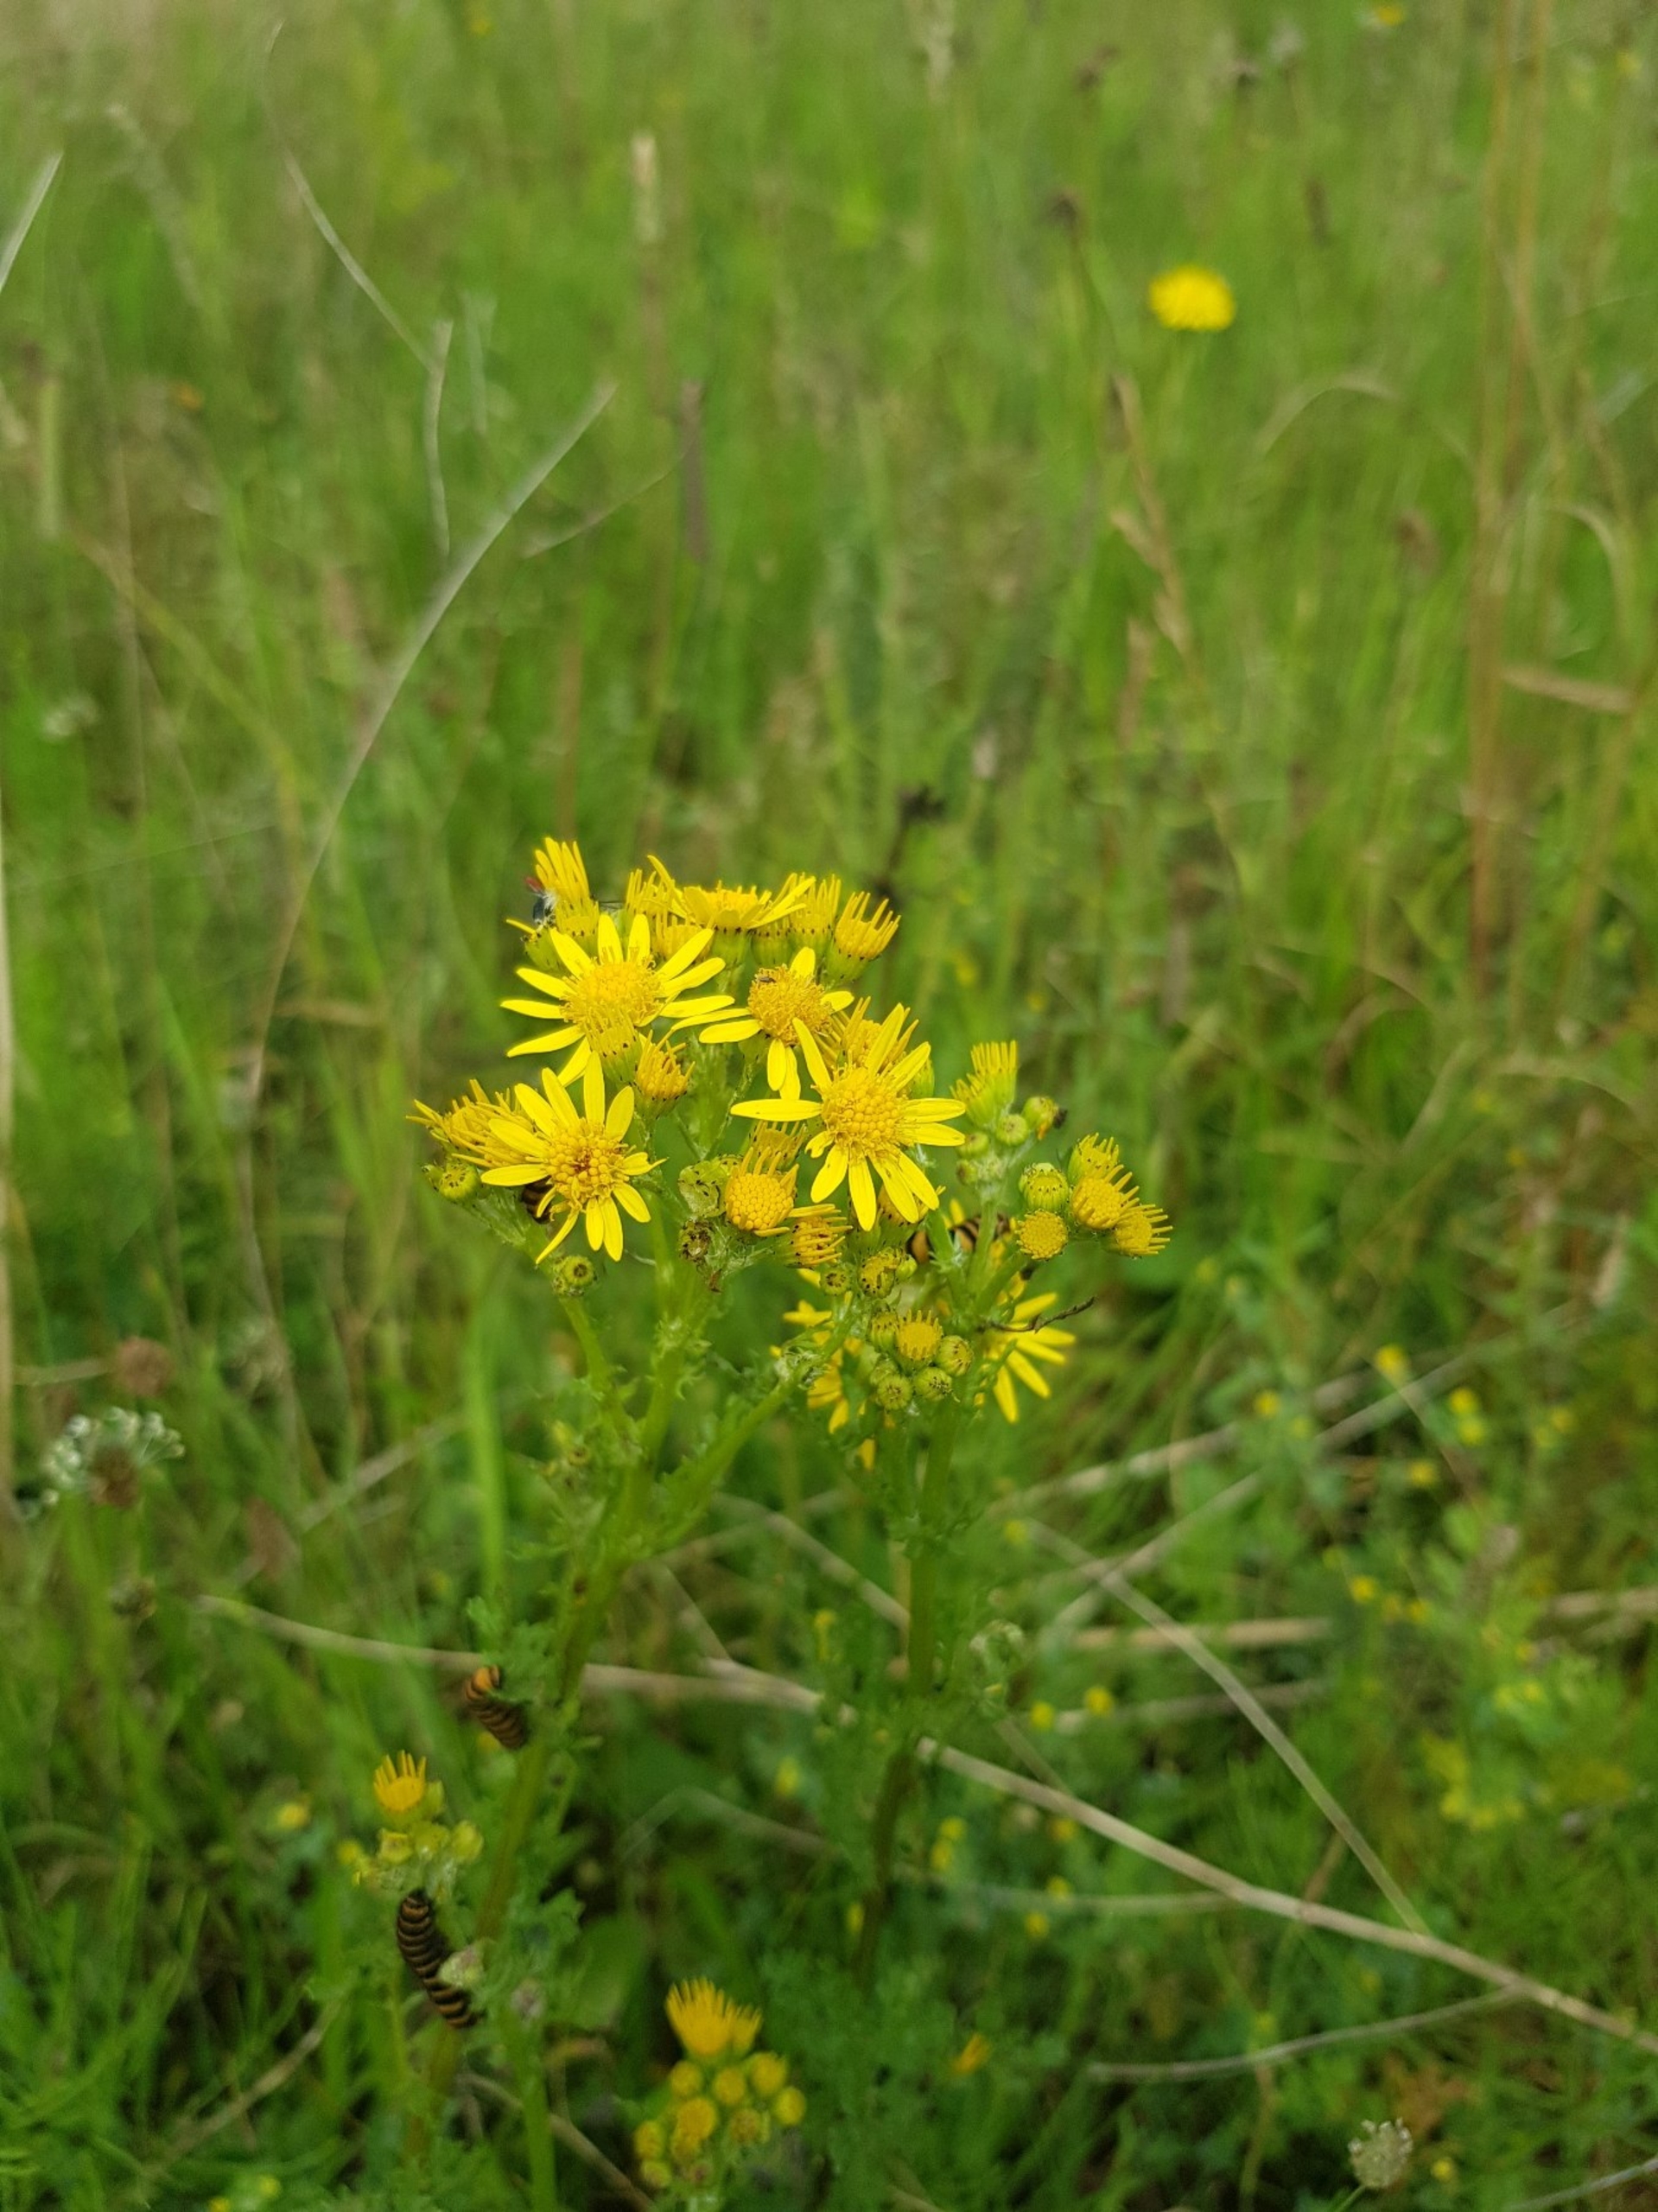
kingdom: Animalia
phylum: Arthropoda
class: Insecta
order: Lepidoptera
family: Erebidae
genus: Tyria
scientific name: Tyria jacobaeae
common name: Blodplet
